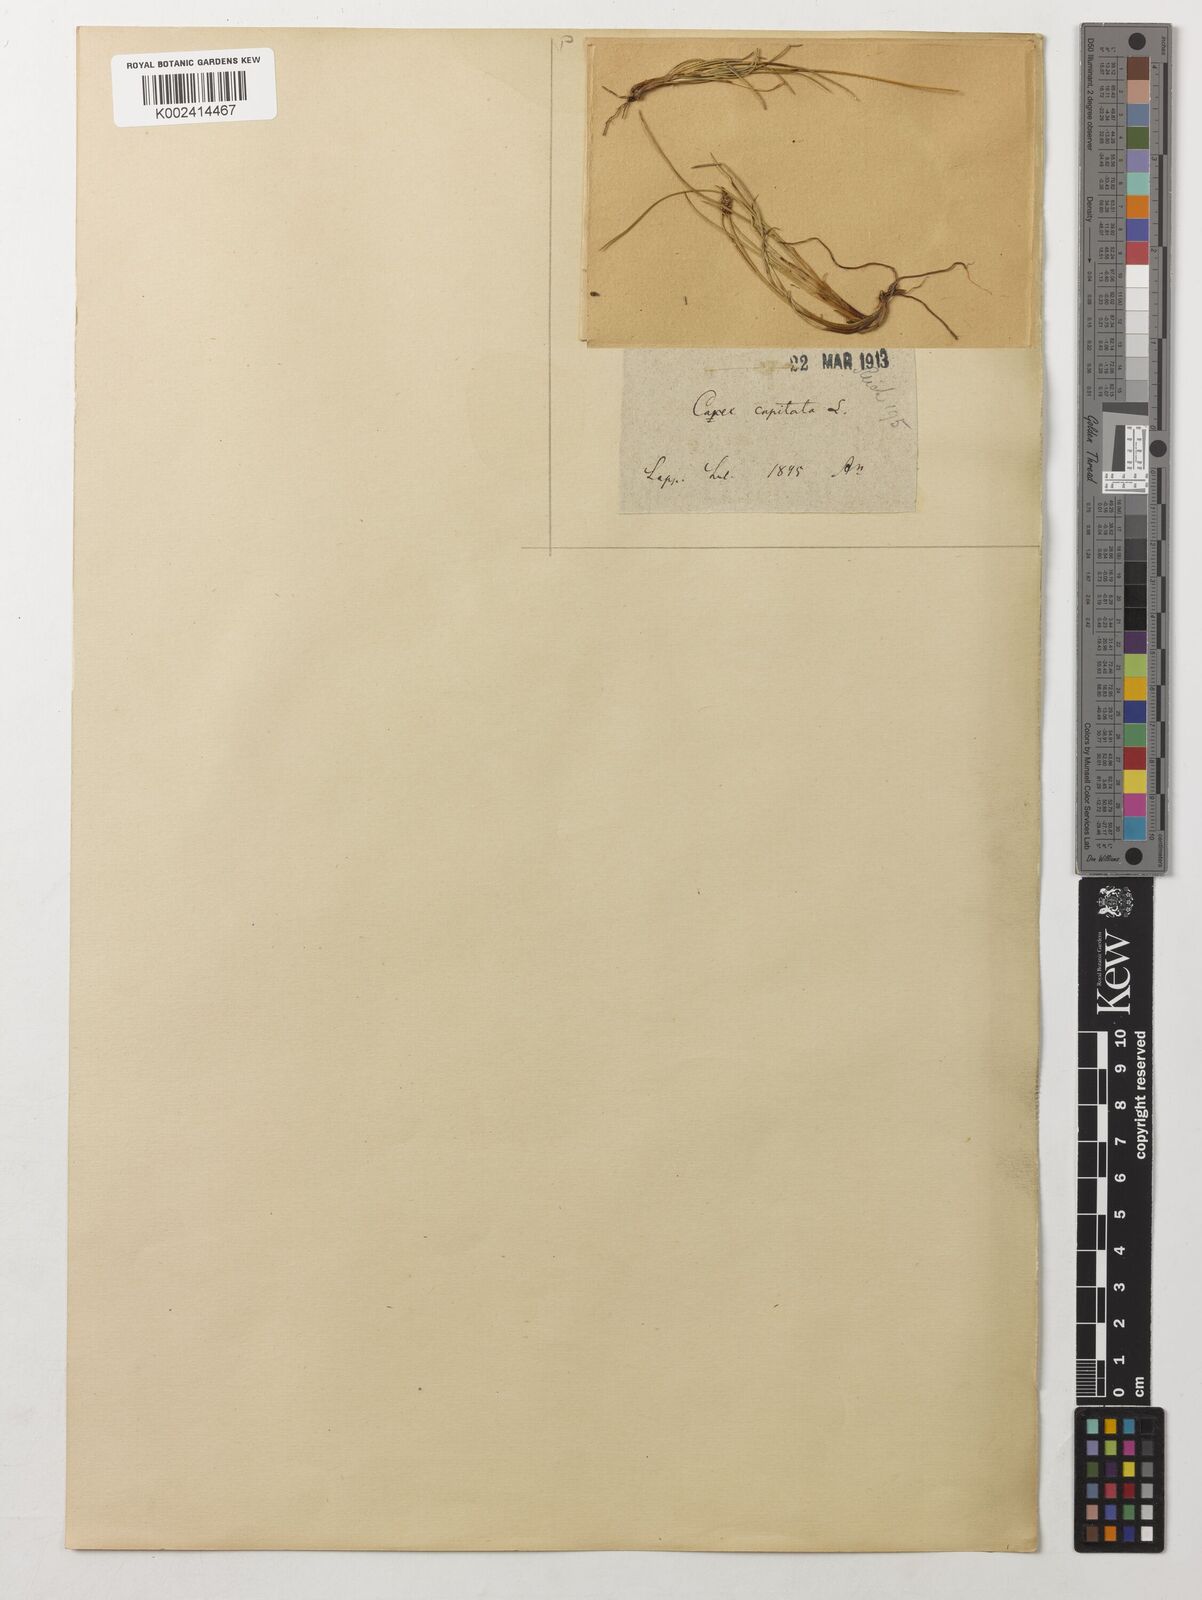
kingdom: Plantae
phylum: Tracheophyta
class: Liliopsida
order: Poales
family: Cyperaceae
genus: Carex
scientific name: Carex capitata
